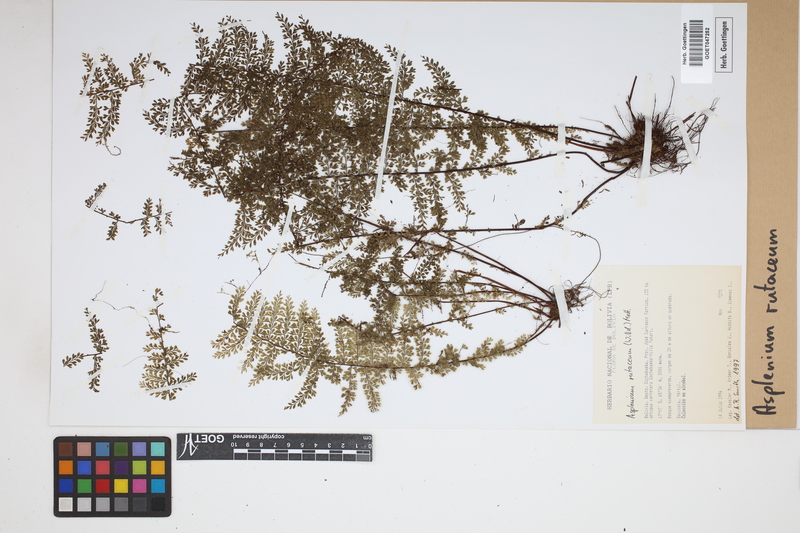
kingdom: Plantae
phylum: Tracheophyta
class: Polypodiopsida
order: Polypodiales
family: Aspleniaceae
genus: Asplenium
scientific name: Asplenium rutaceum
